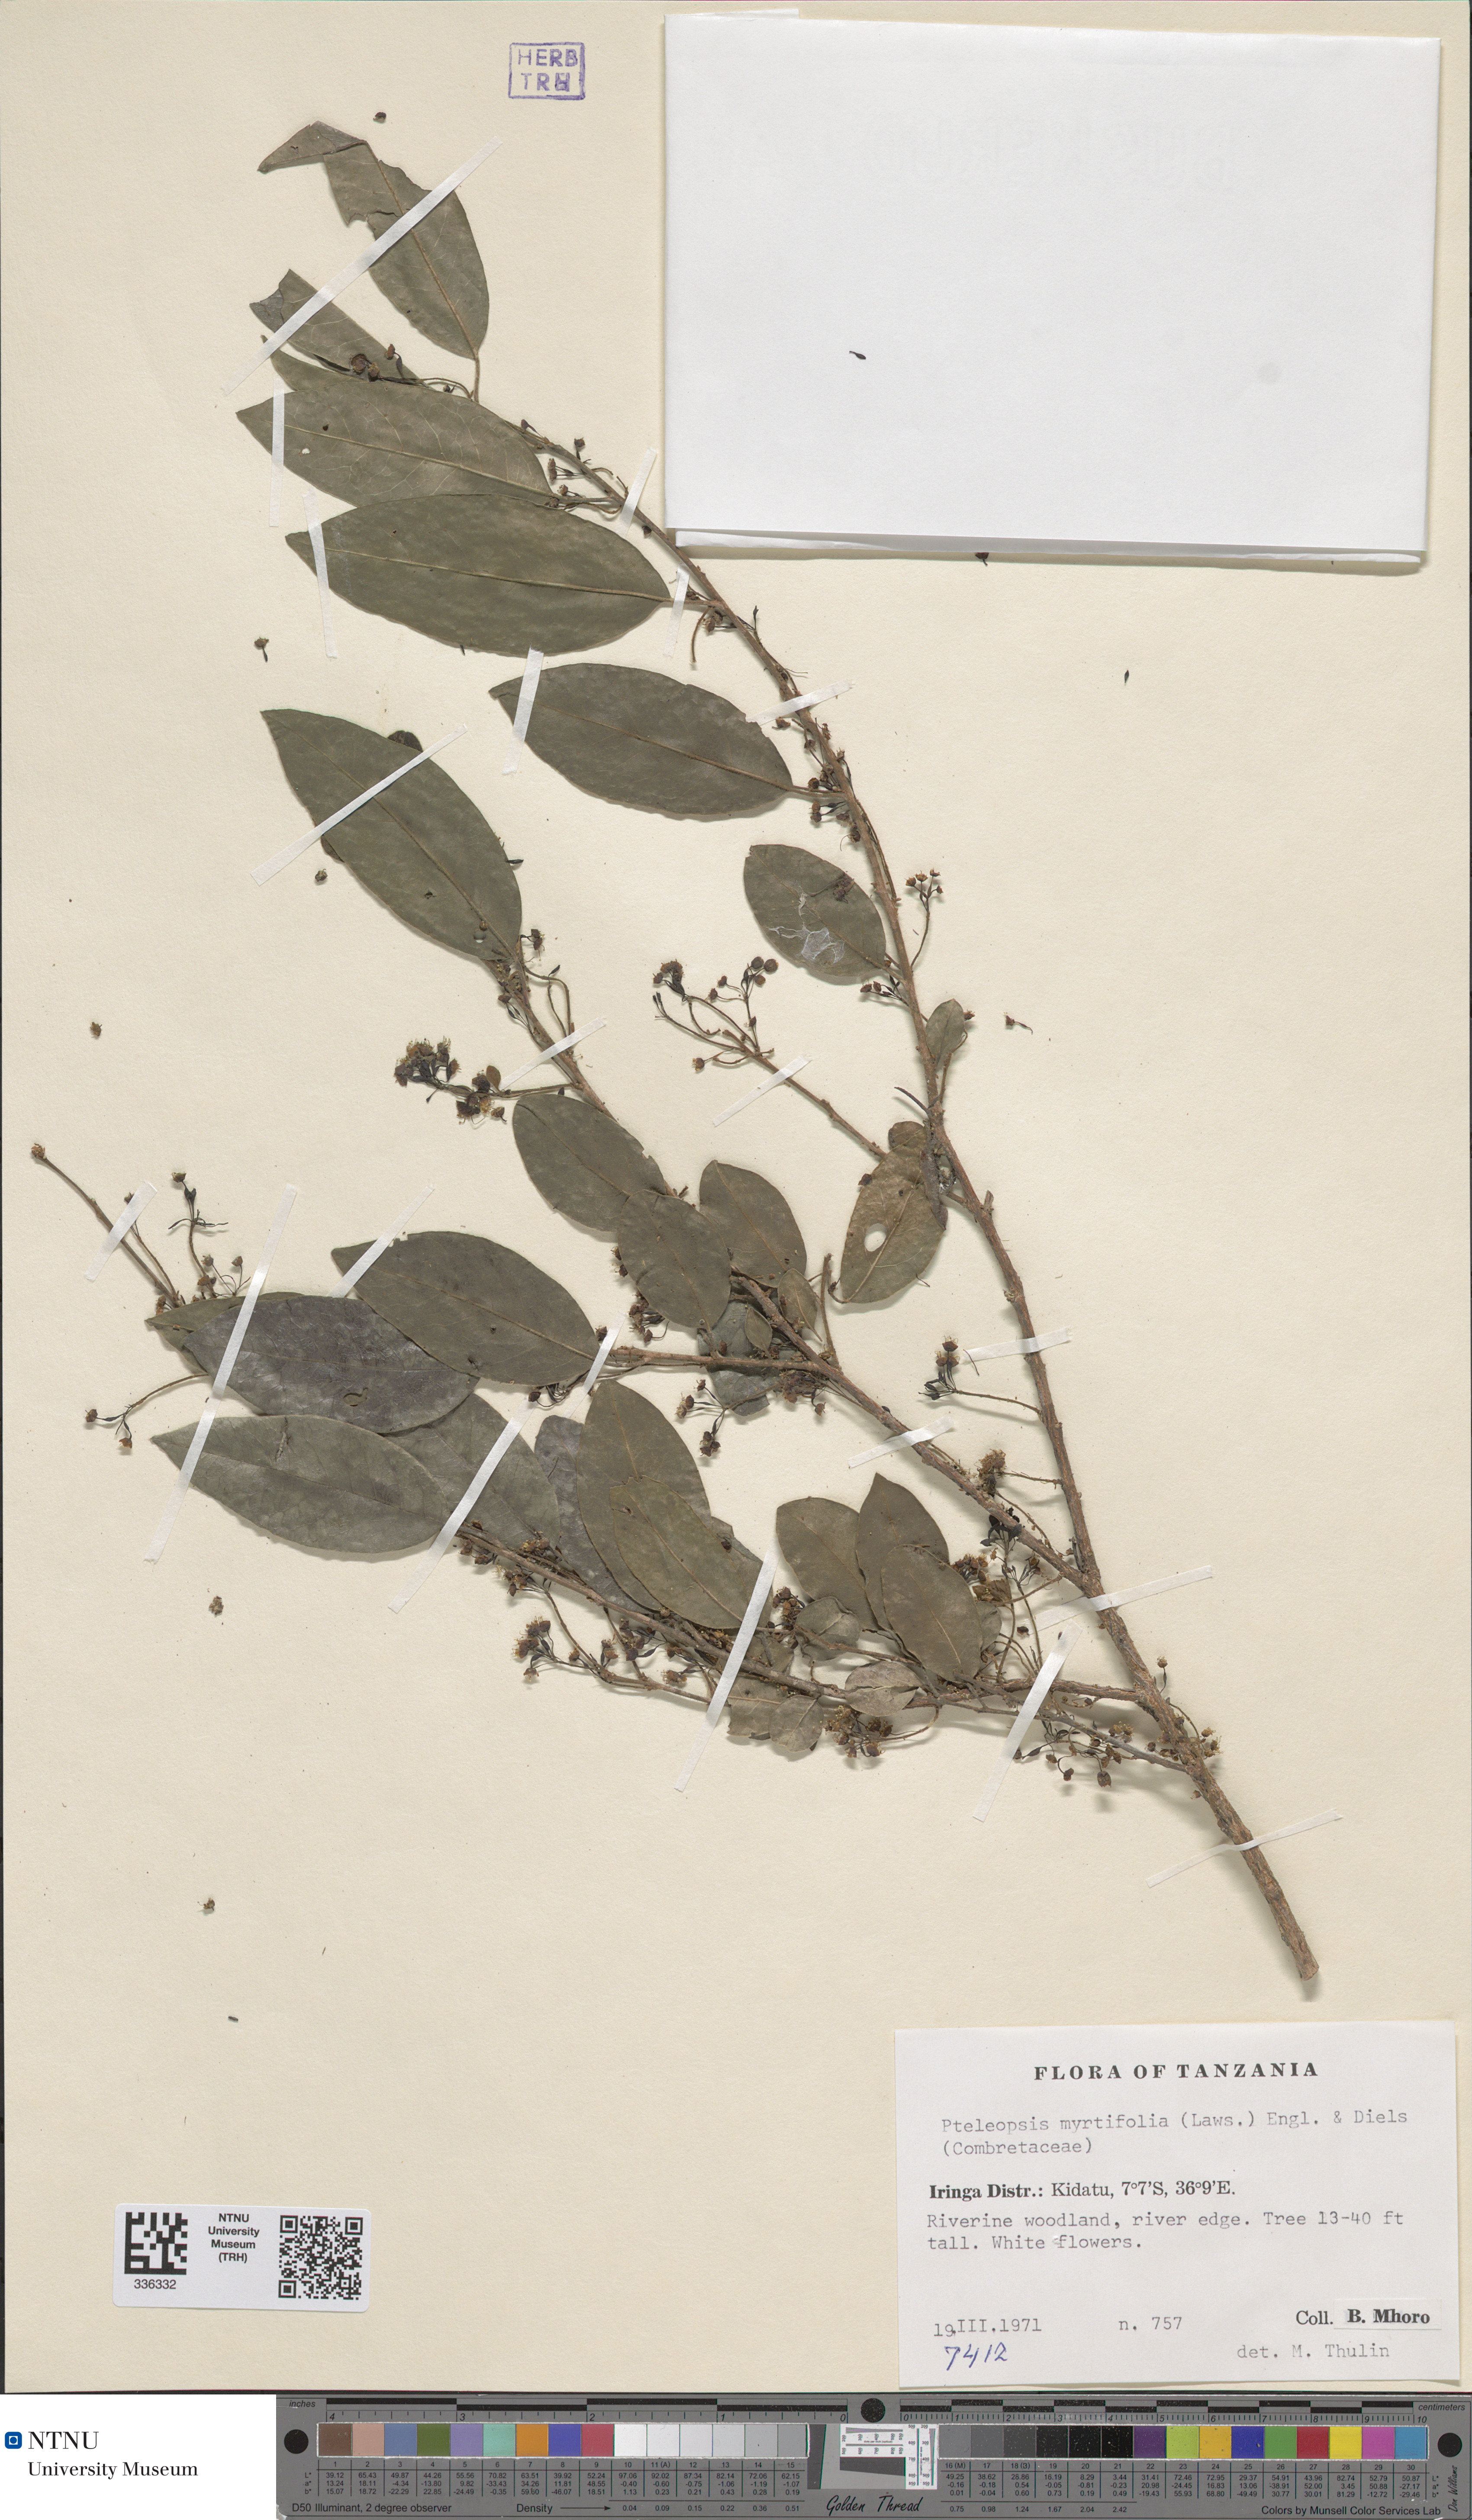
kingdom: Plantae
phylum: Tracheophyta
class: Magnoliopsida
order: Myrtales
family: Combretaceae
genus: Terminalia
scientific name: Terminalia myrtifolia
